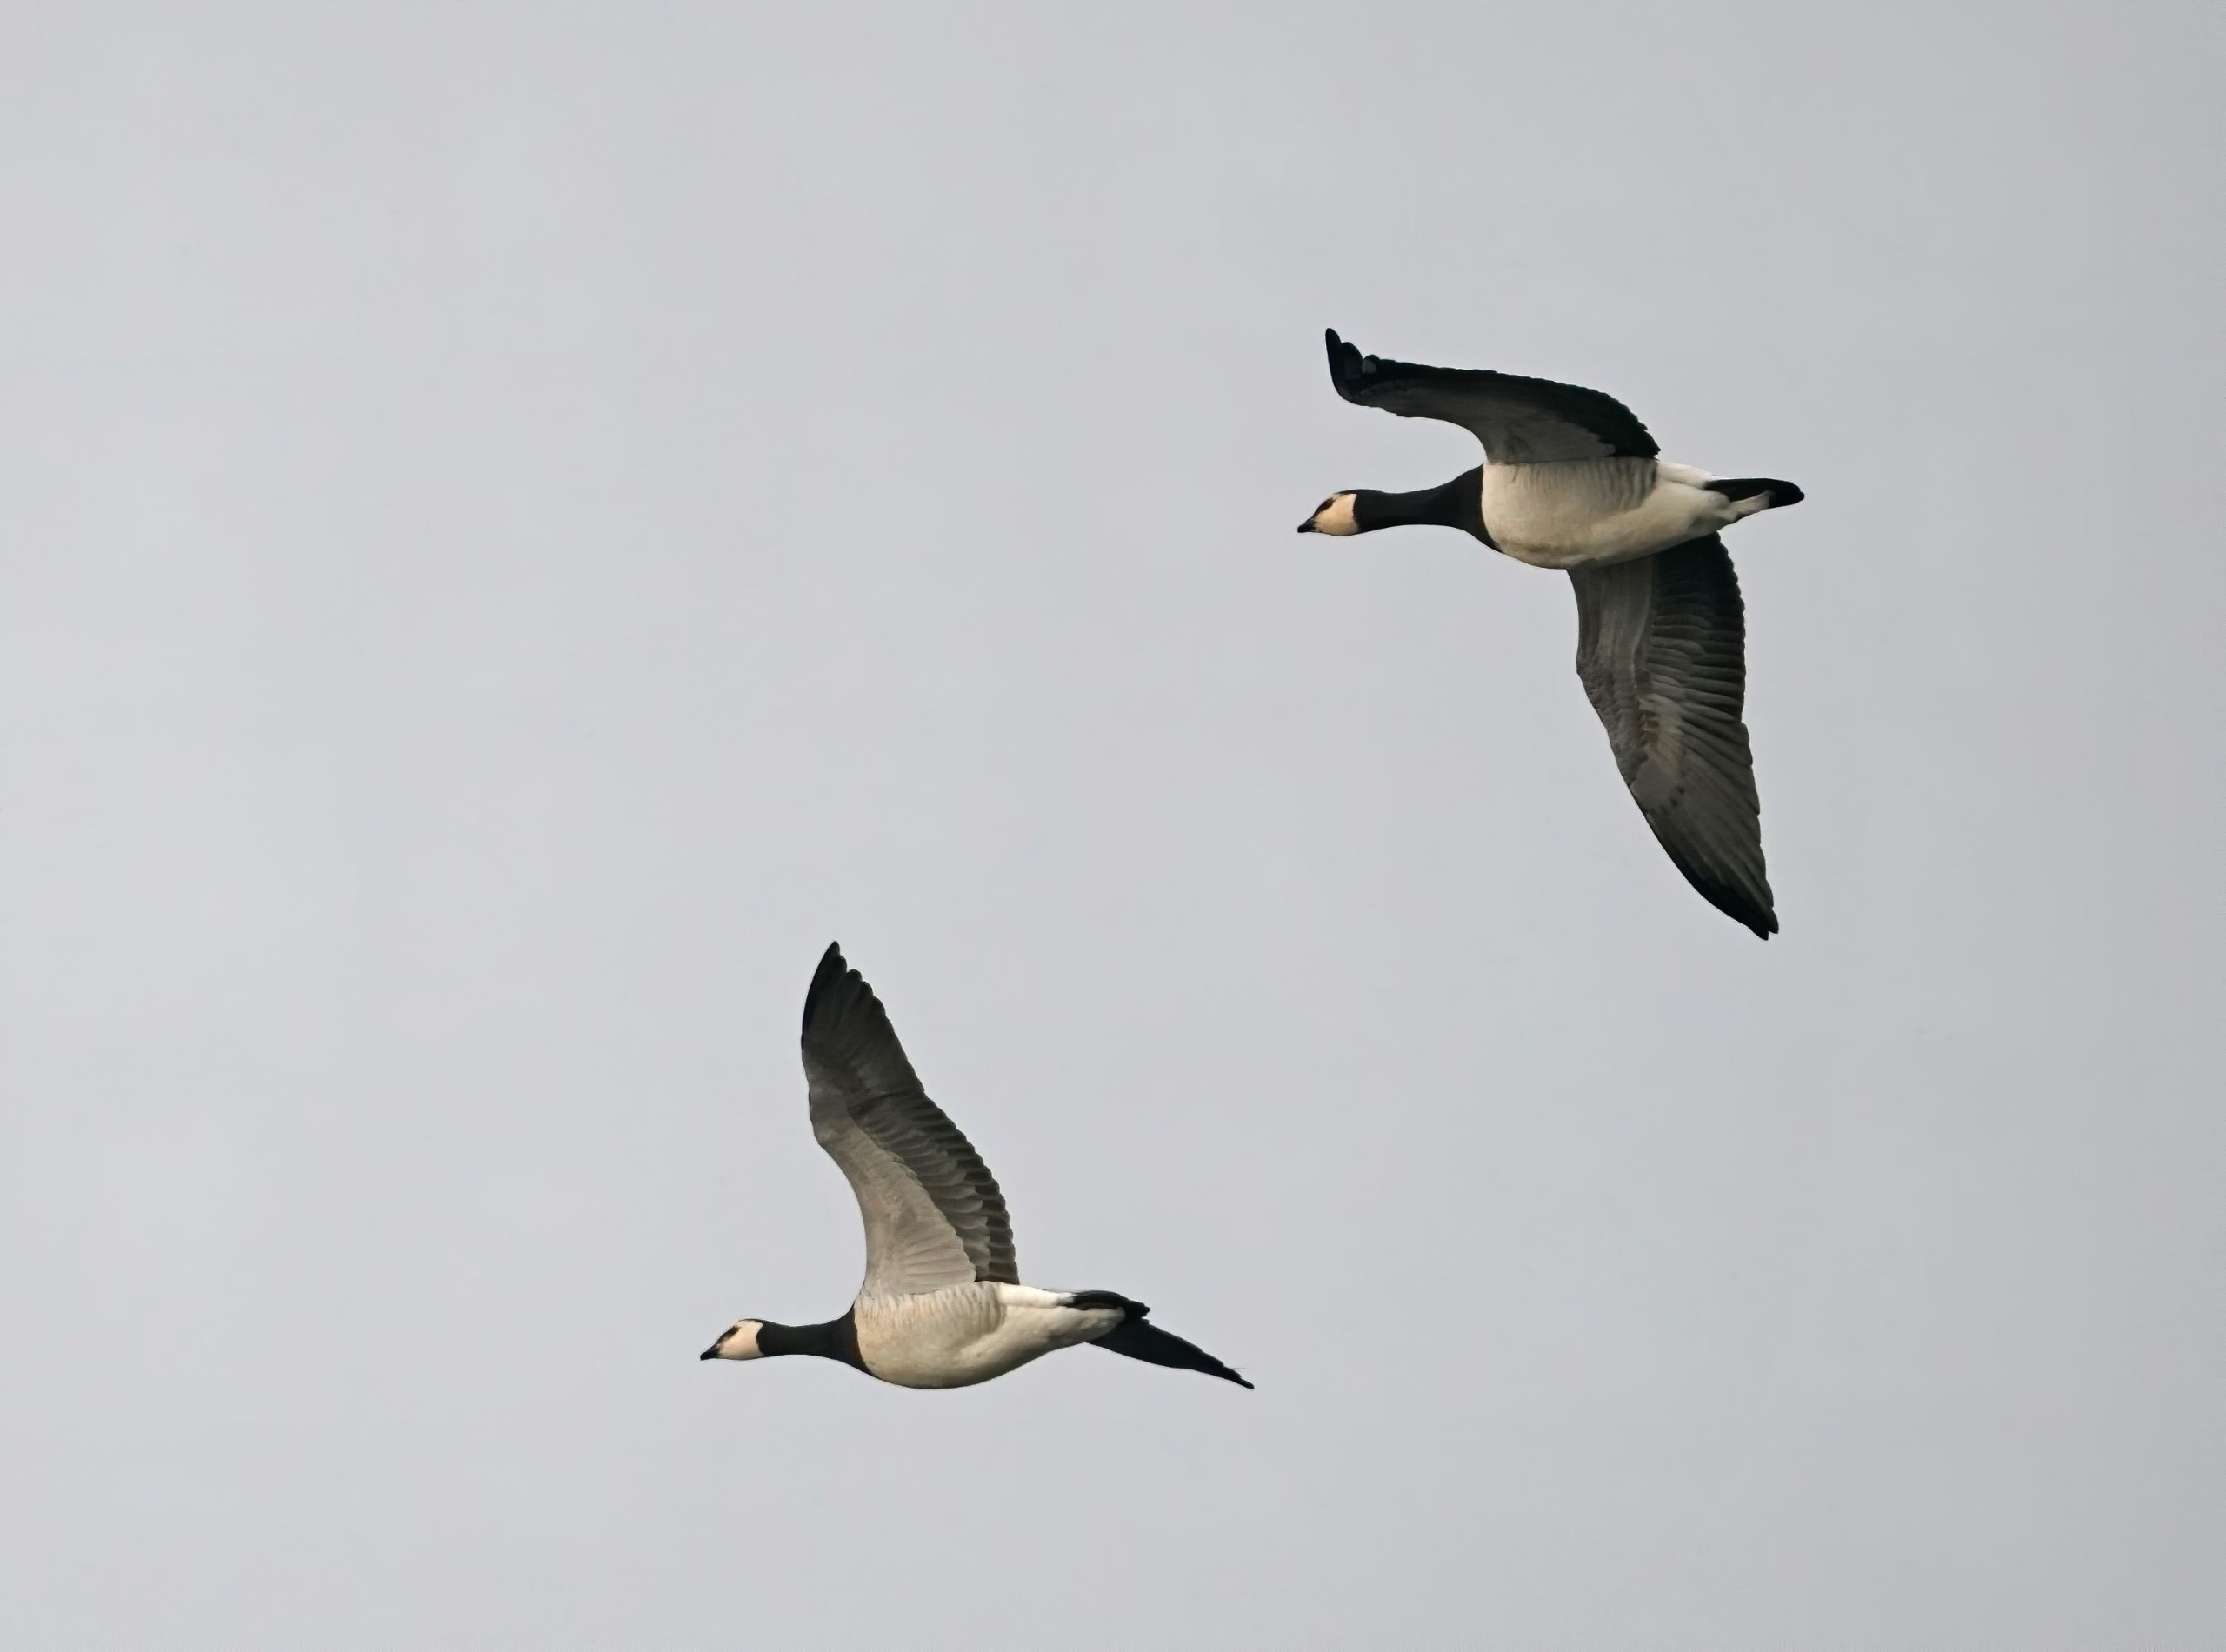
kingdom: Animalia
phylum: Chordata
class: Aves
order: Anseriformes
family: Anatidae
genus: Branta
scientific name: Branta leucopsis
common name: Bramgås
